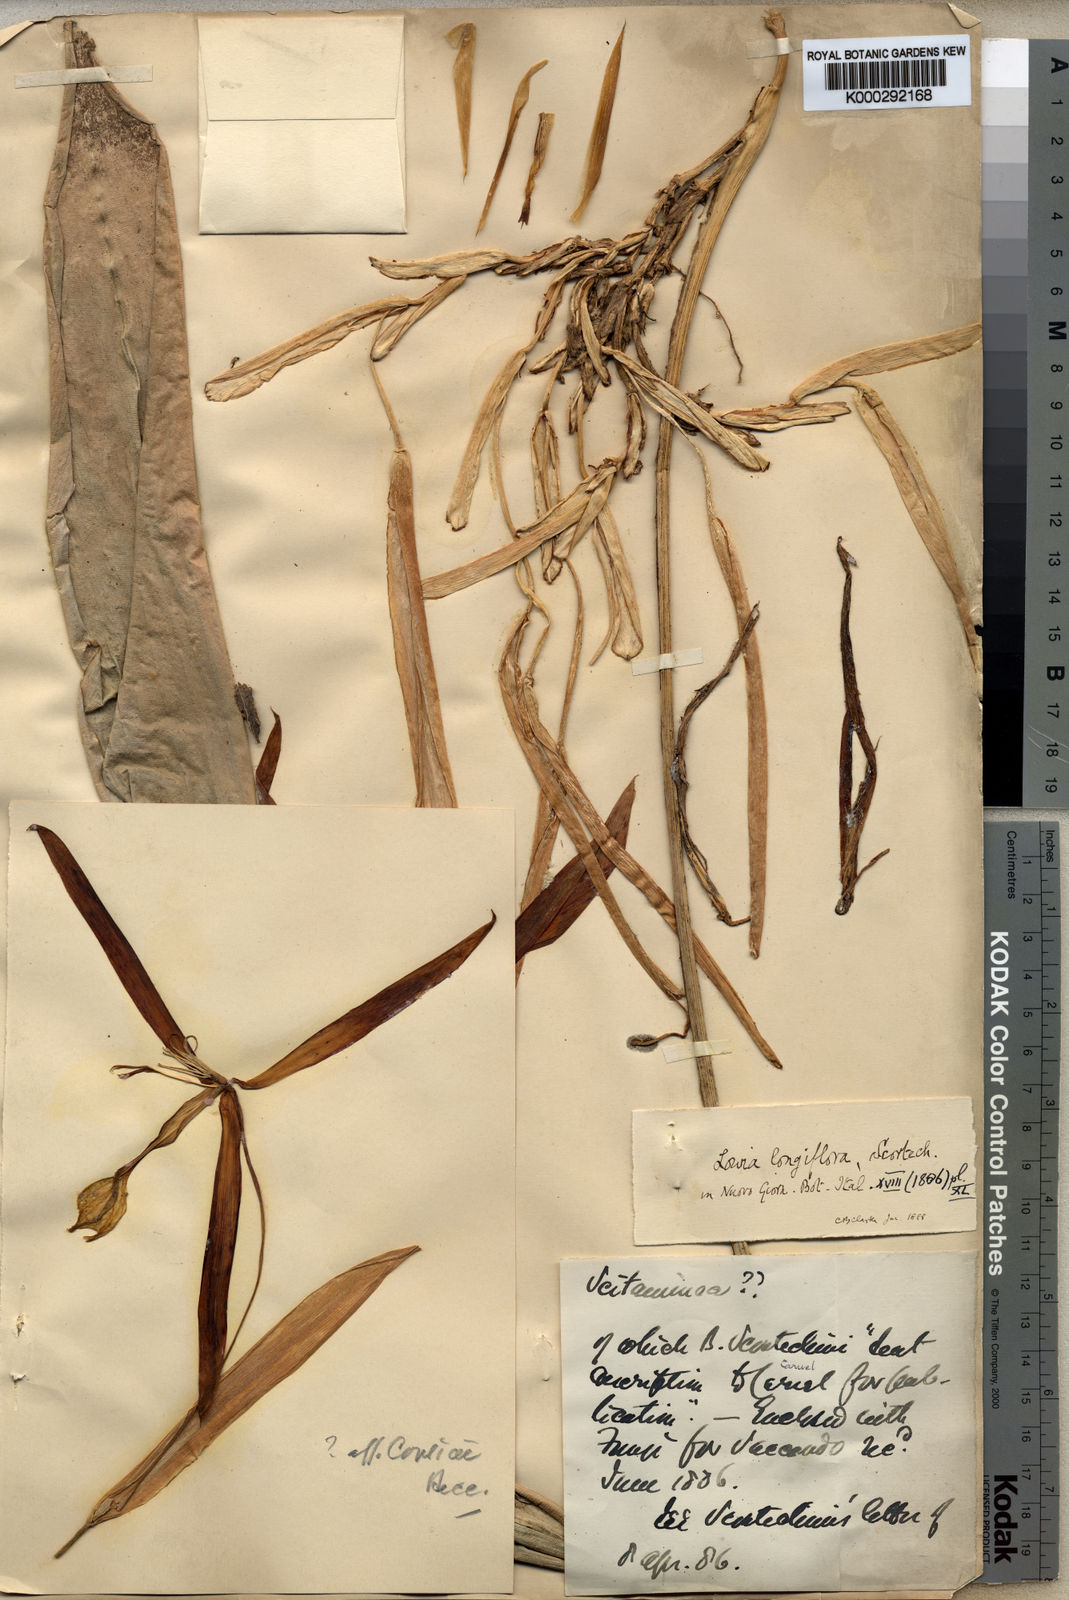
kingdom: Plantae
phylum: Tracheophyta
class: Liliopsida
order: Zingiberales
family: Lowiaceae
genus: Orchidantha
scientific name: Orchidantha longiflora
